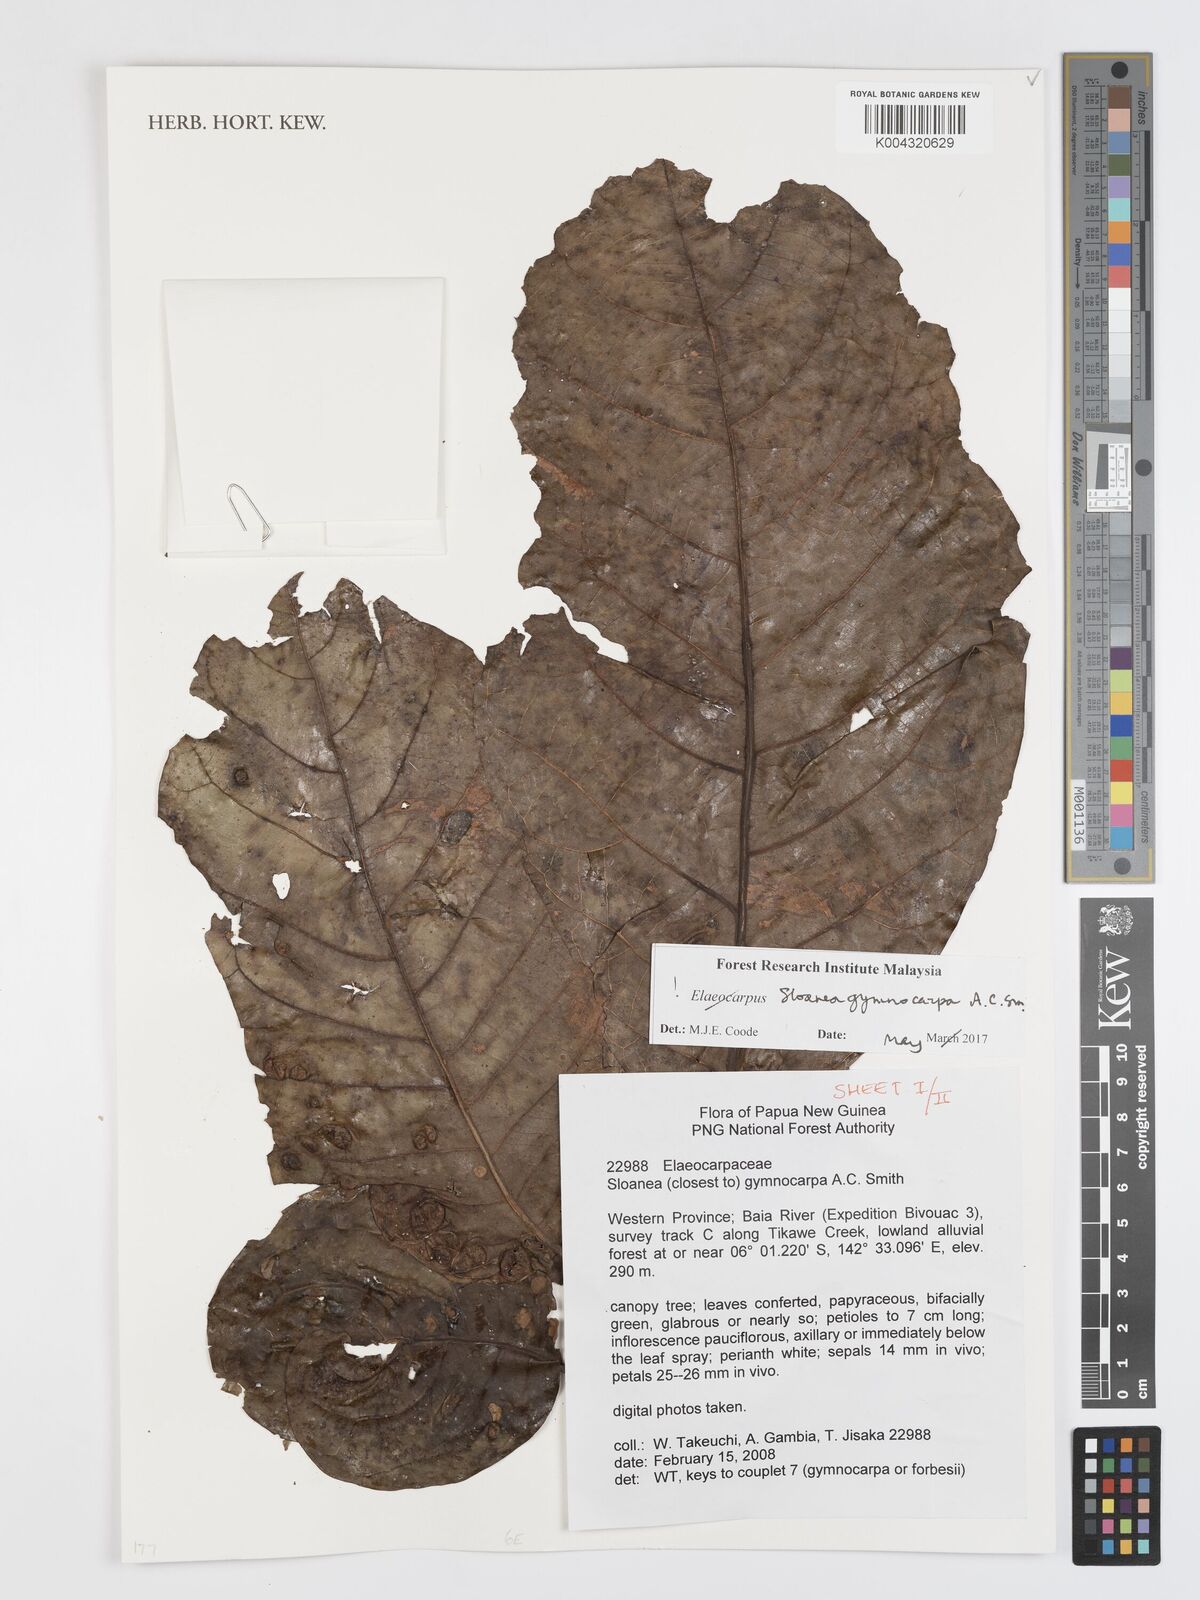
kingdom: Plantae
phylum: Tracheophyta
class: Magnoliopsida
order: Oxalidales
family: Elaeocarpaceae
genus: Sloanea
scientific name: Sloanea gymnocarpa
